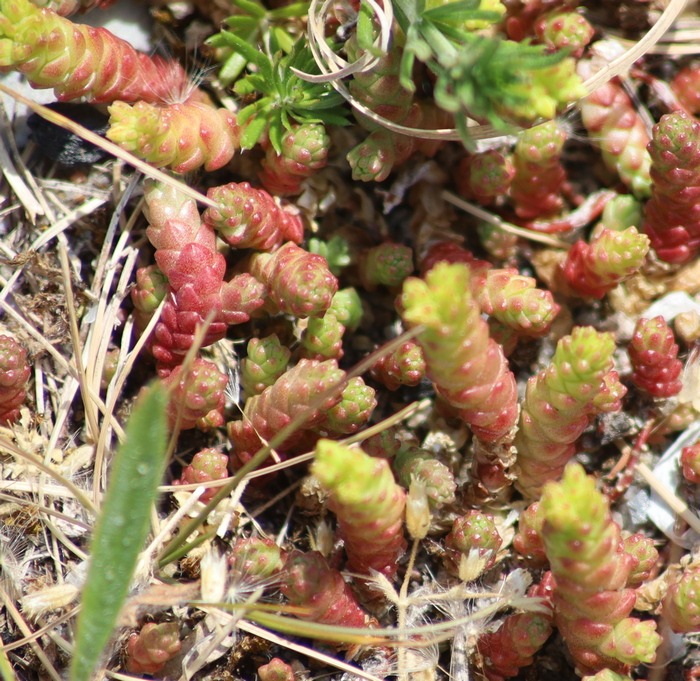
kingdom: Plantae
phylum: Tracheophyta
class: Magnoliopsida
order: Saxifragales
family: Crassulaceae
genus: Sedum
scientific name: Sedum acre
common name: Bidende stenurt
